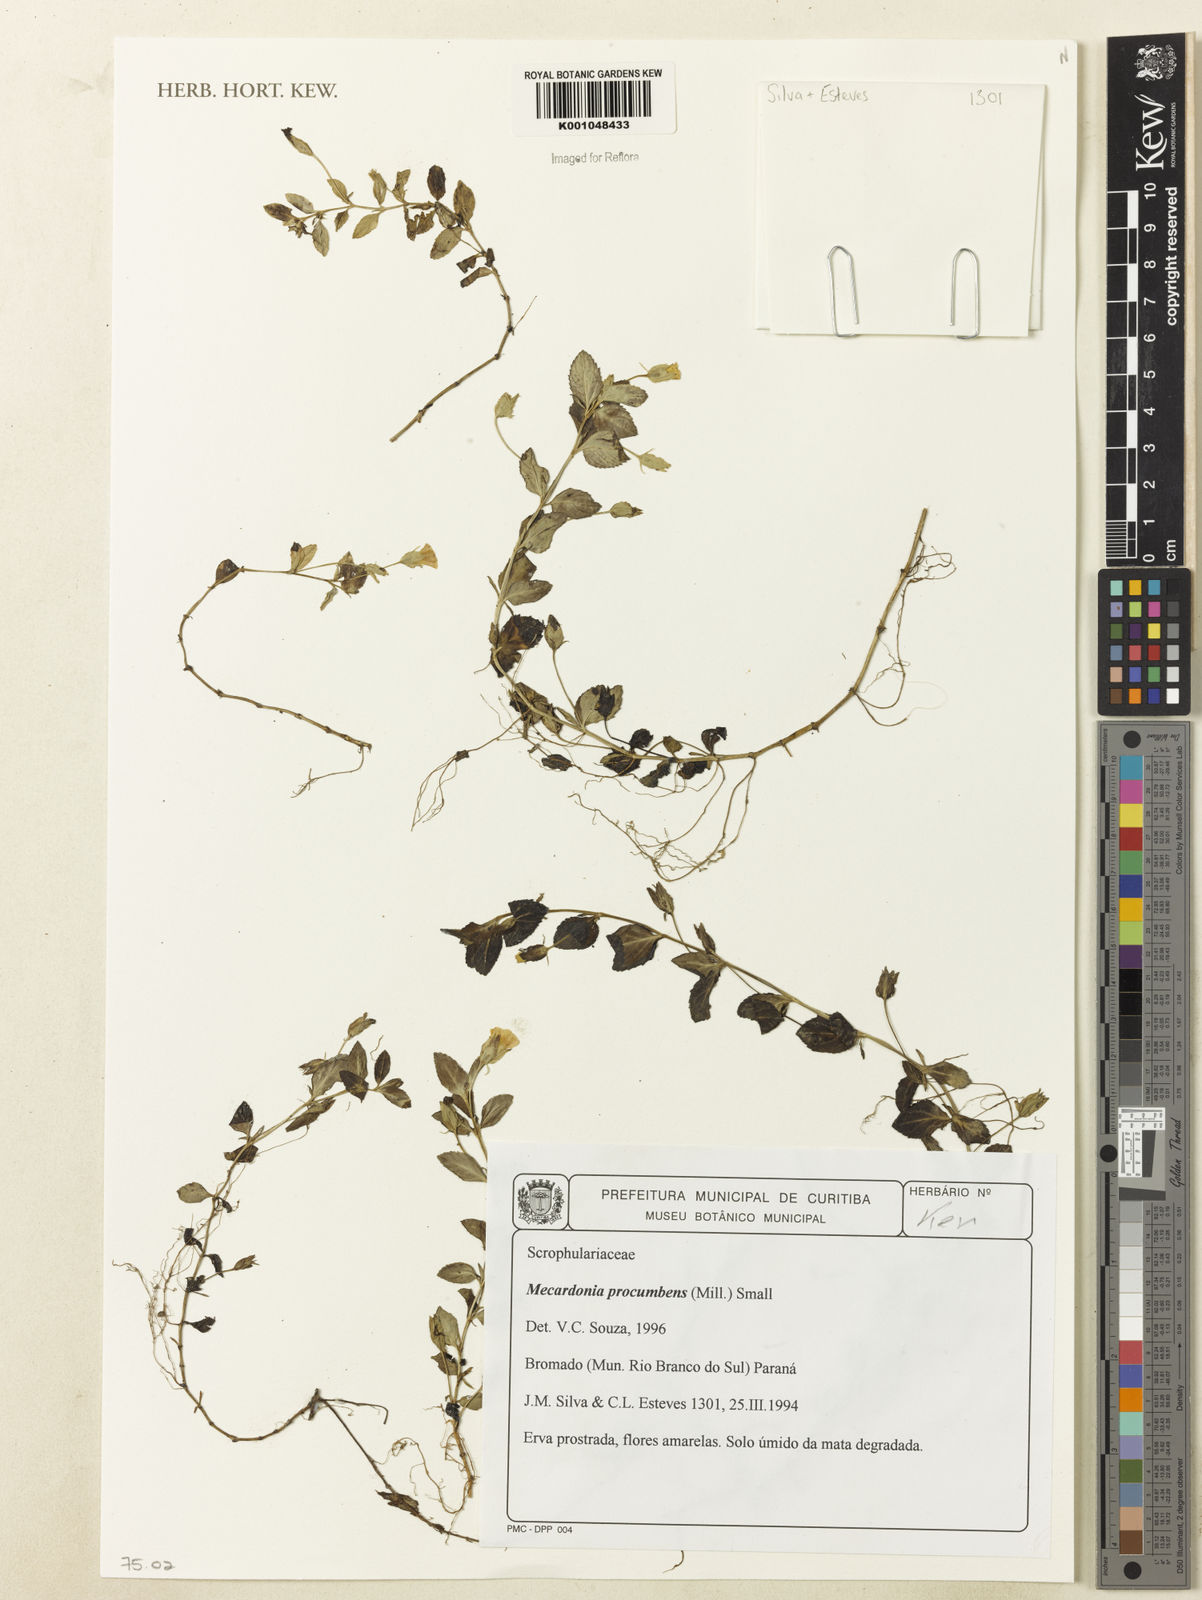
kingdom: Plantae
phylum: Tracheophyta
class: Magnoliopsida
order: Lamiales
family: Plantaginaceae
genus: Mecardonia
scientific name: Mecardonia procumbens
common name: Baby jump-up
